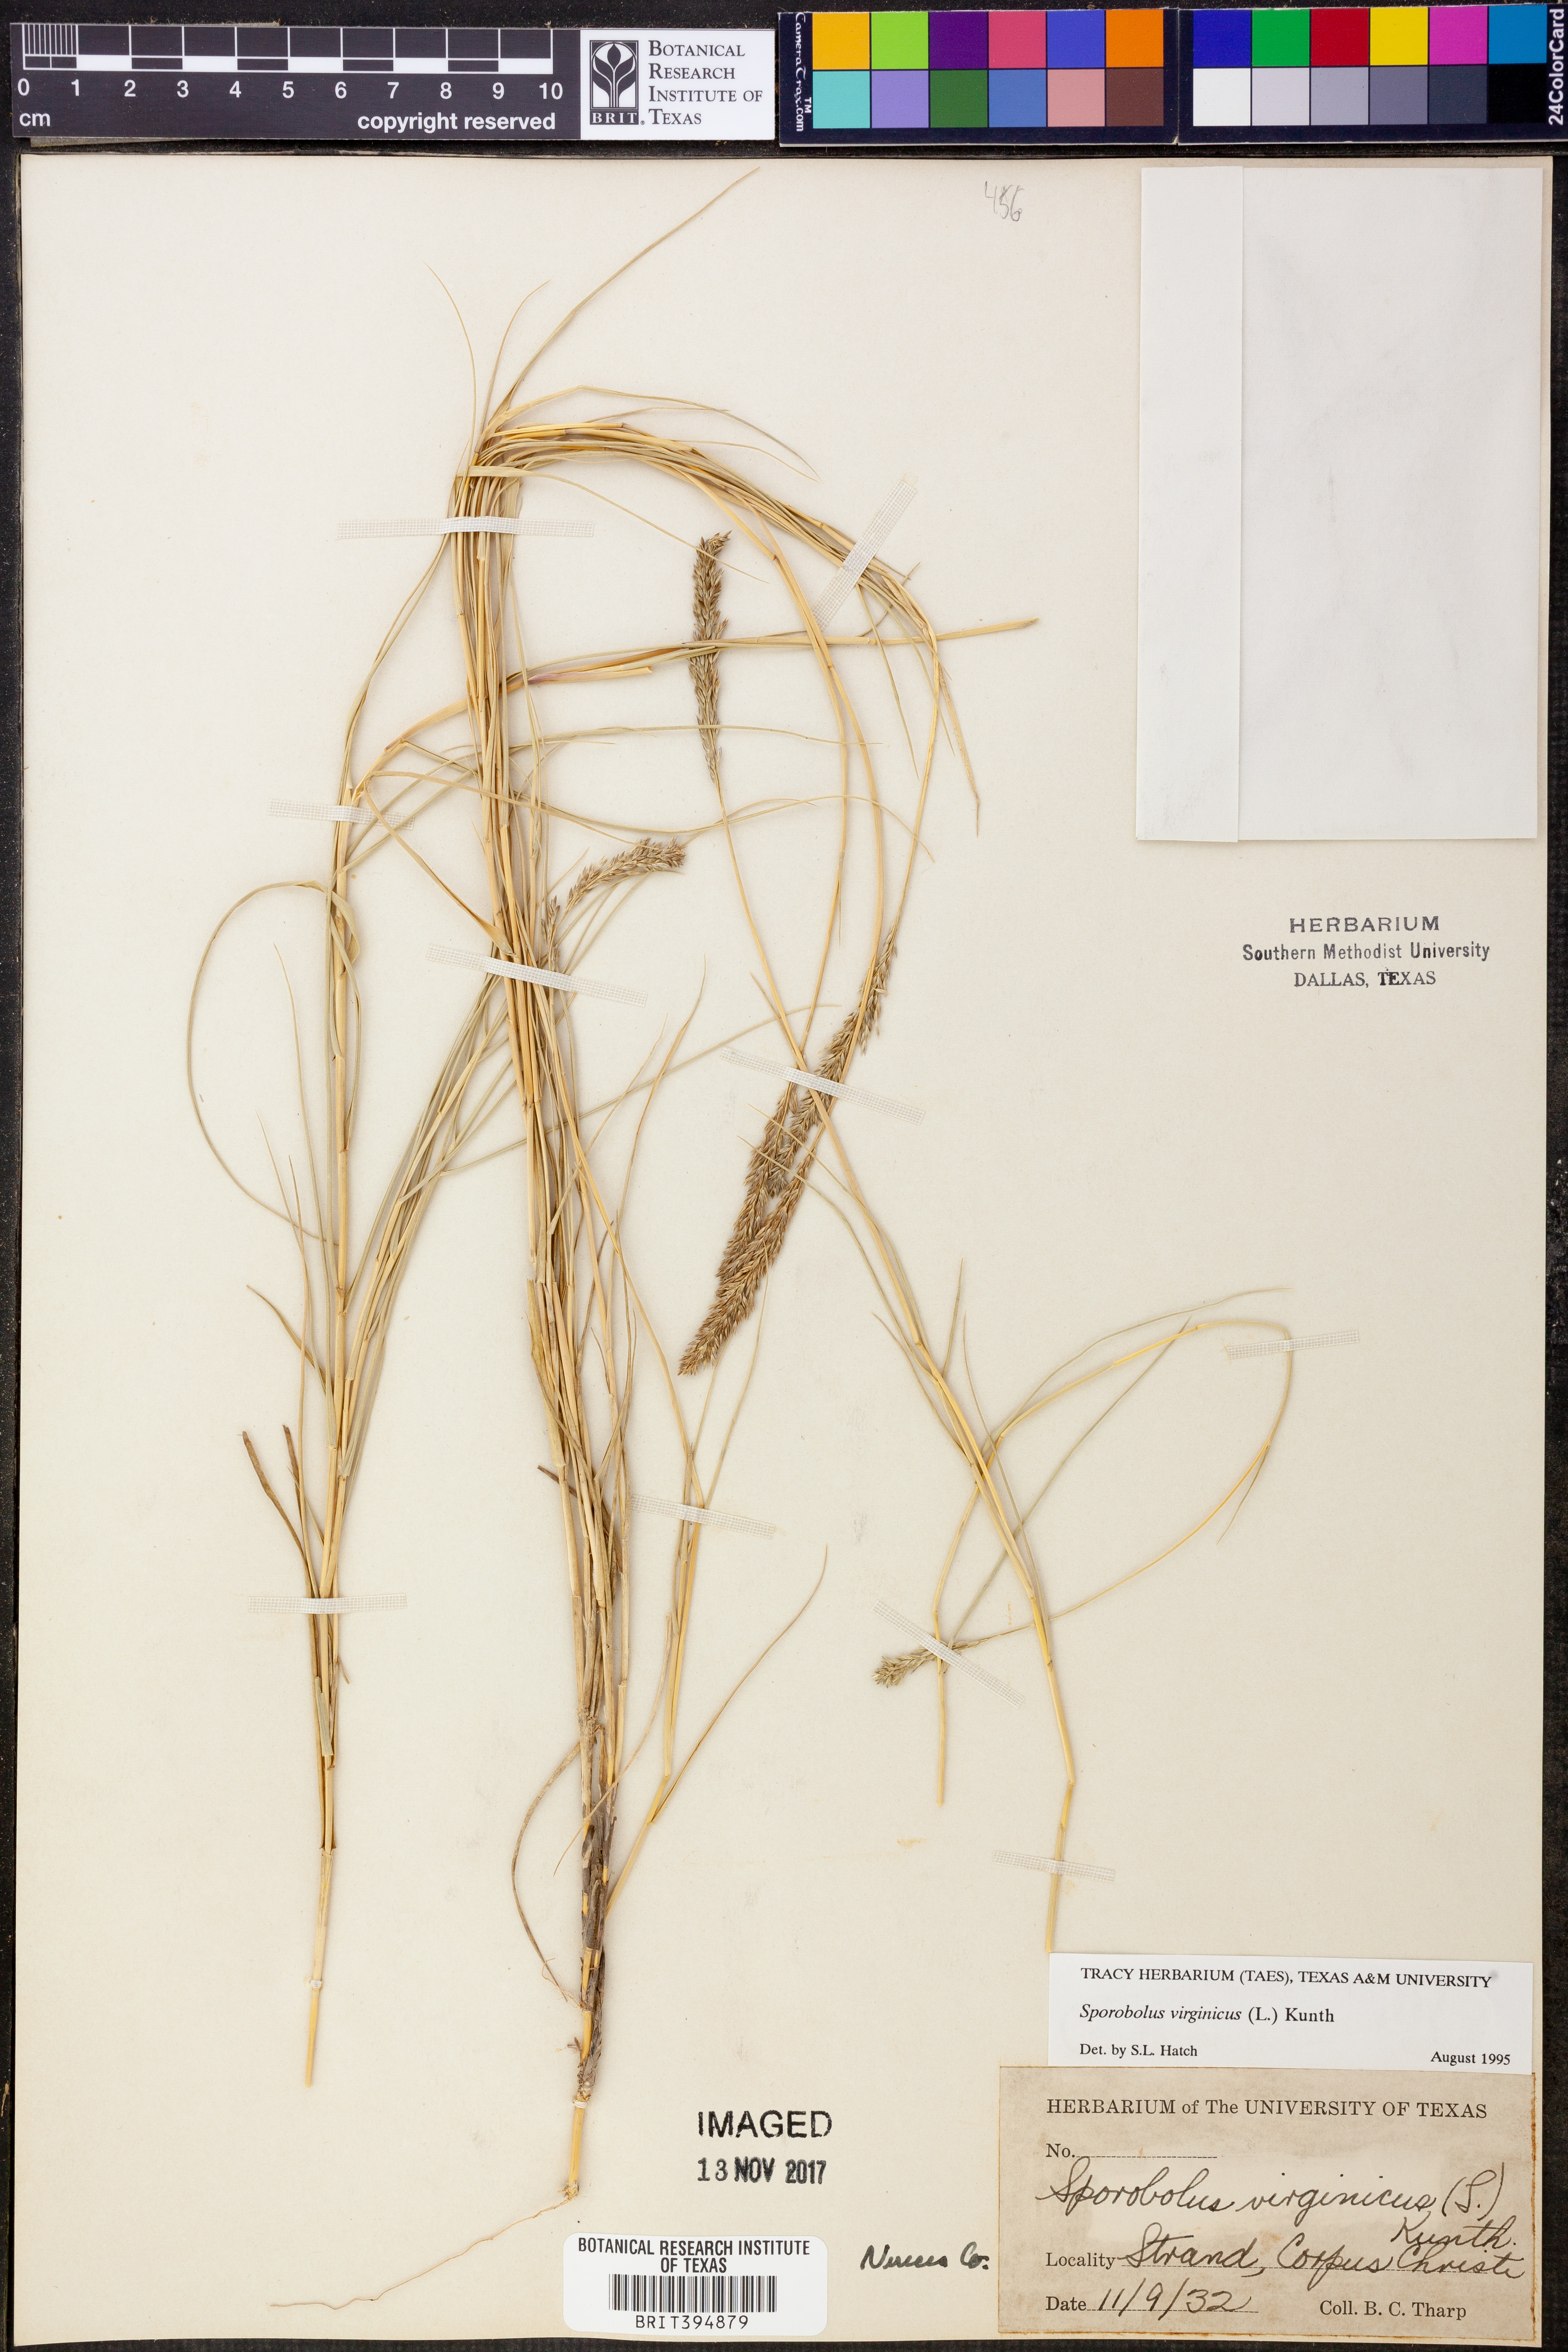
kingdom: Plantae
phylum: Tracheophyta
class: Liliopsida
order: Poales
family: Poaceae
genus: Sporobolus
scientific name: Sporobolus virginicus
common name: Beach dropseed
